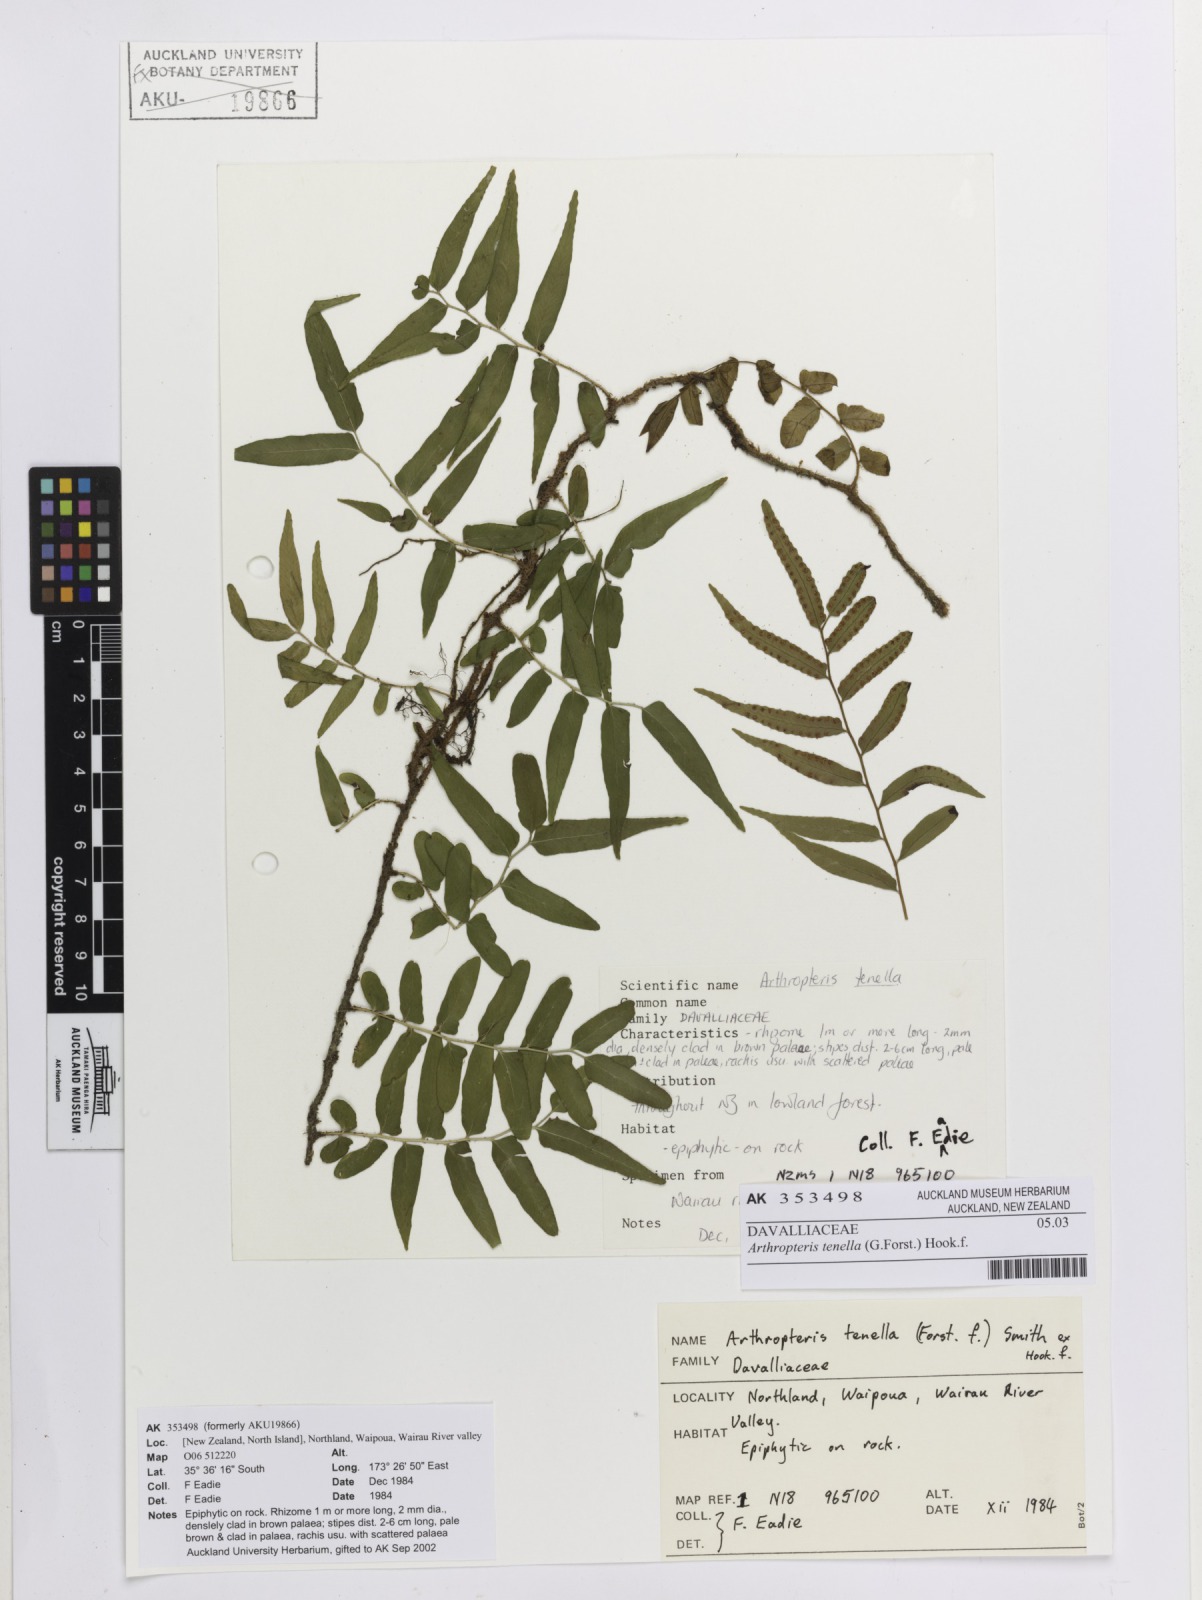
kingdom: Plantae
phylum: Tracheophyta
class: Polypodiopsida
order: Polypodiales
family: Tectariaceae
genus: Arthropteris
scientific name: Arthropteris tenella
